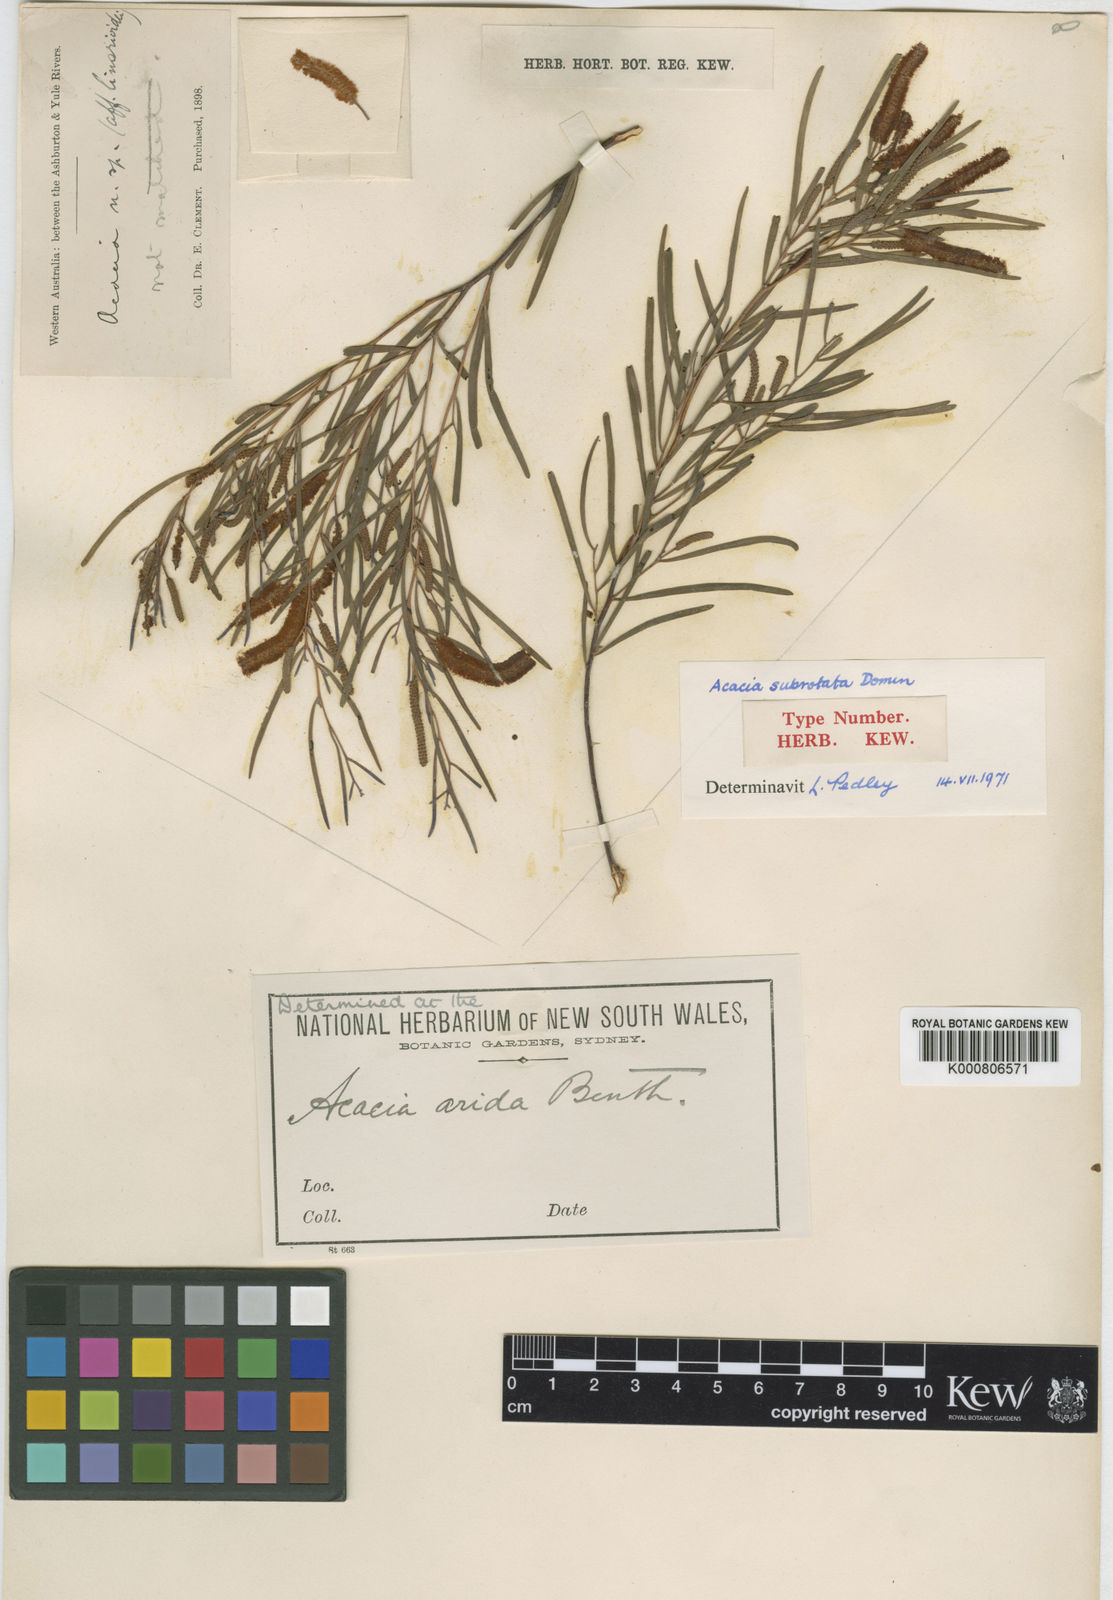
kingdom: Plantae
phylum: Tracheophyta
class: Magnoliopsida
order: Fabales
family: Fabaceae
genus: Acacia
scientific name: Acacia arida
